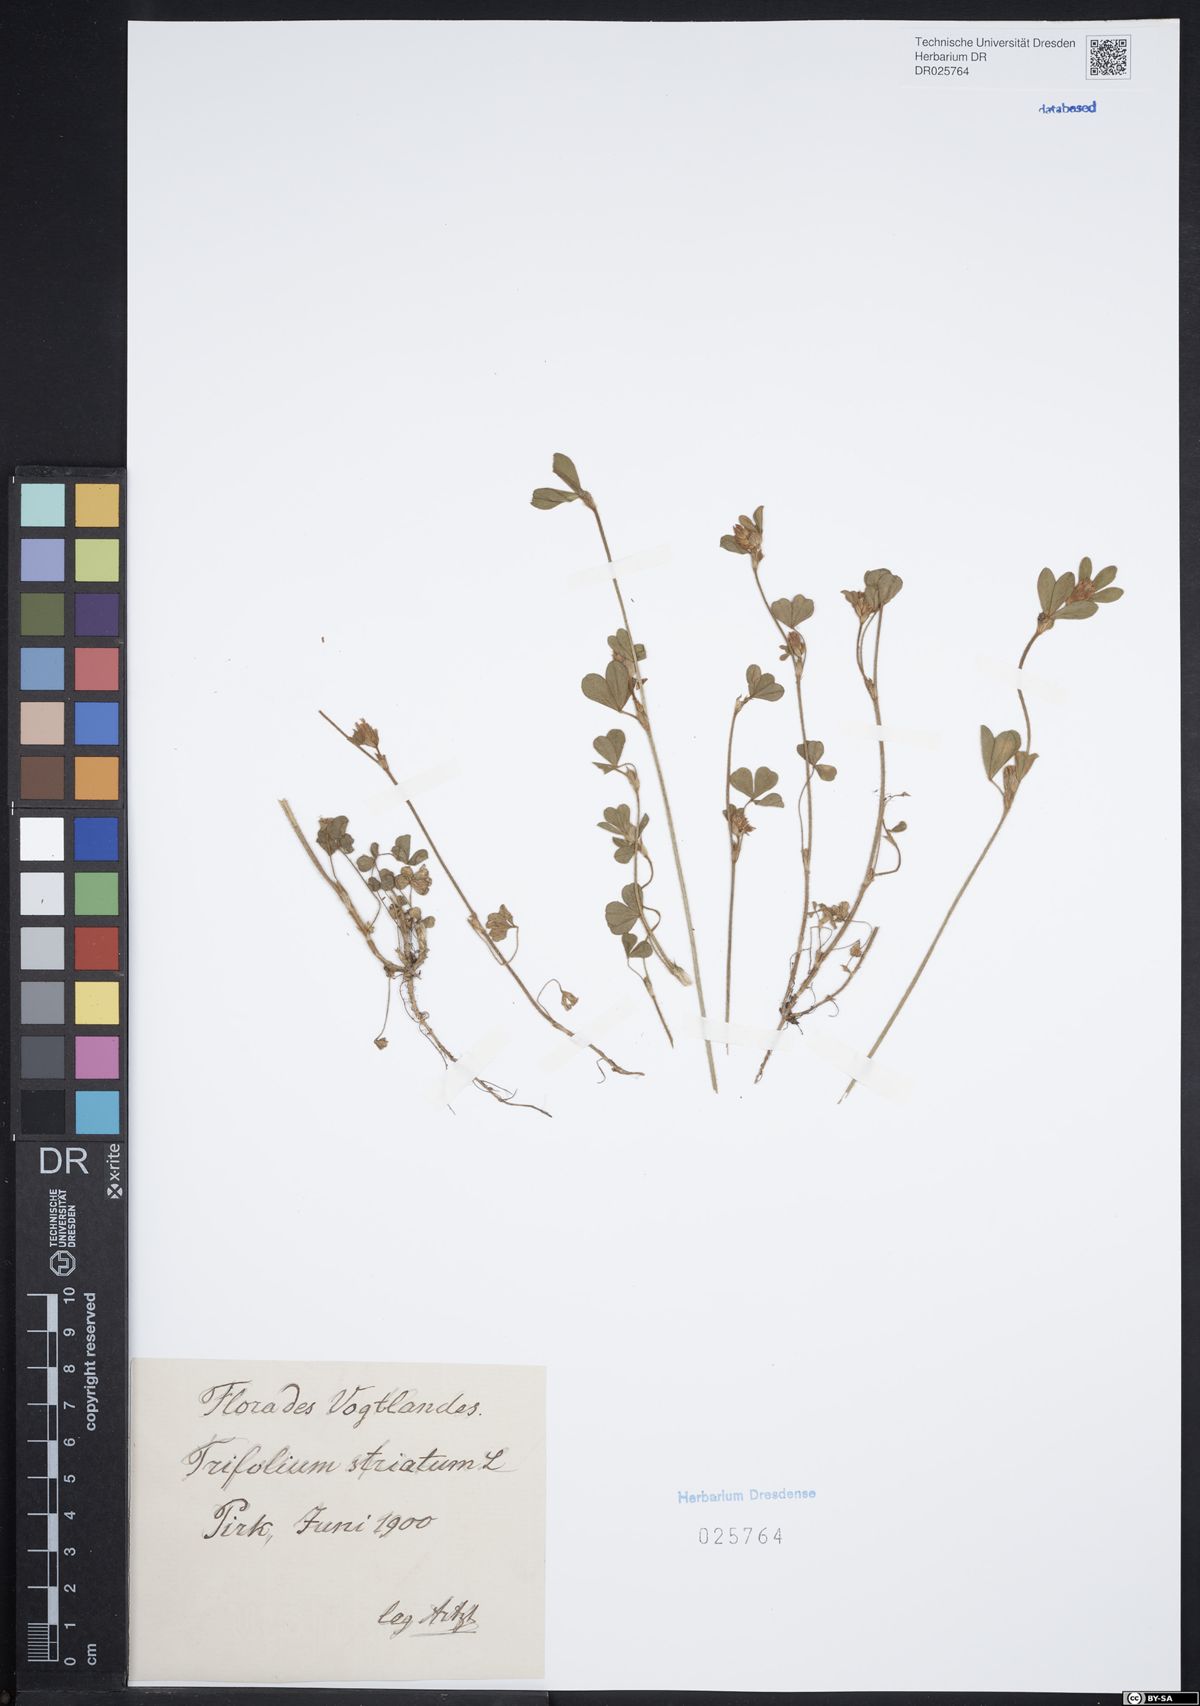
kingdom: Plantae
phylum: Tracheophyta
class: Magnoliopsida
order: Fabales
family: Fabaceae
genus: Trifolium
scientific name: Trifolium striatum
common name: Knotted clover
